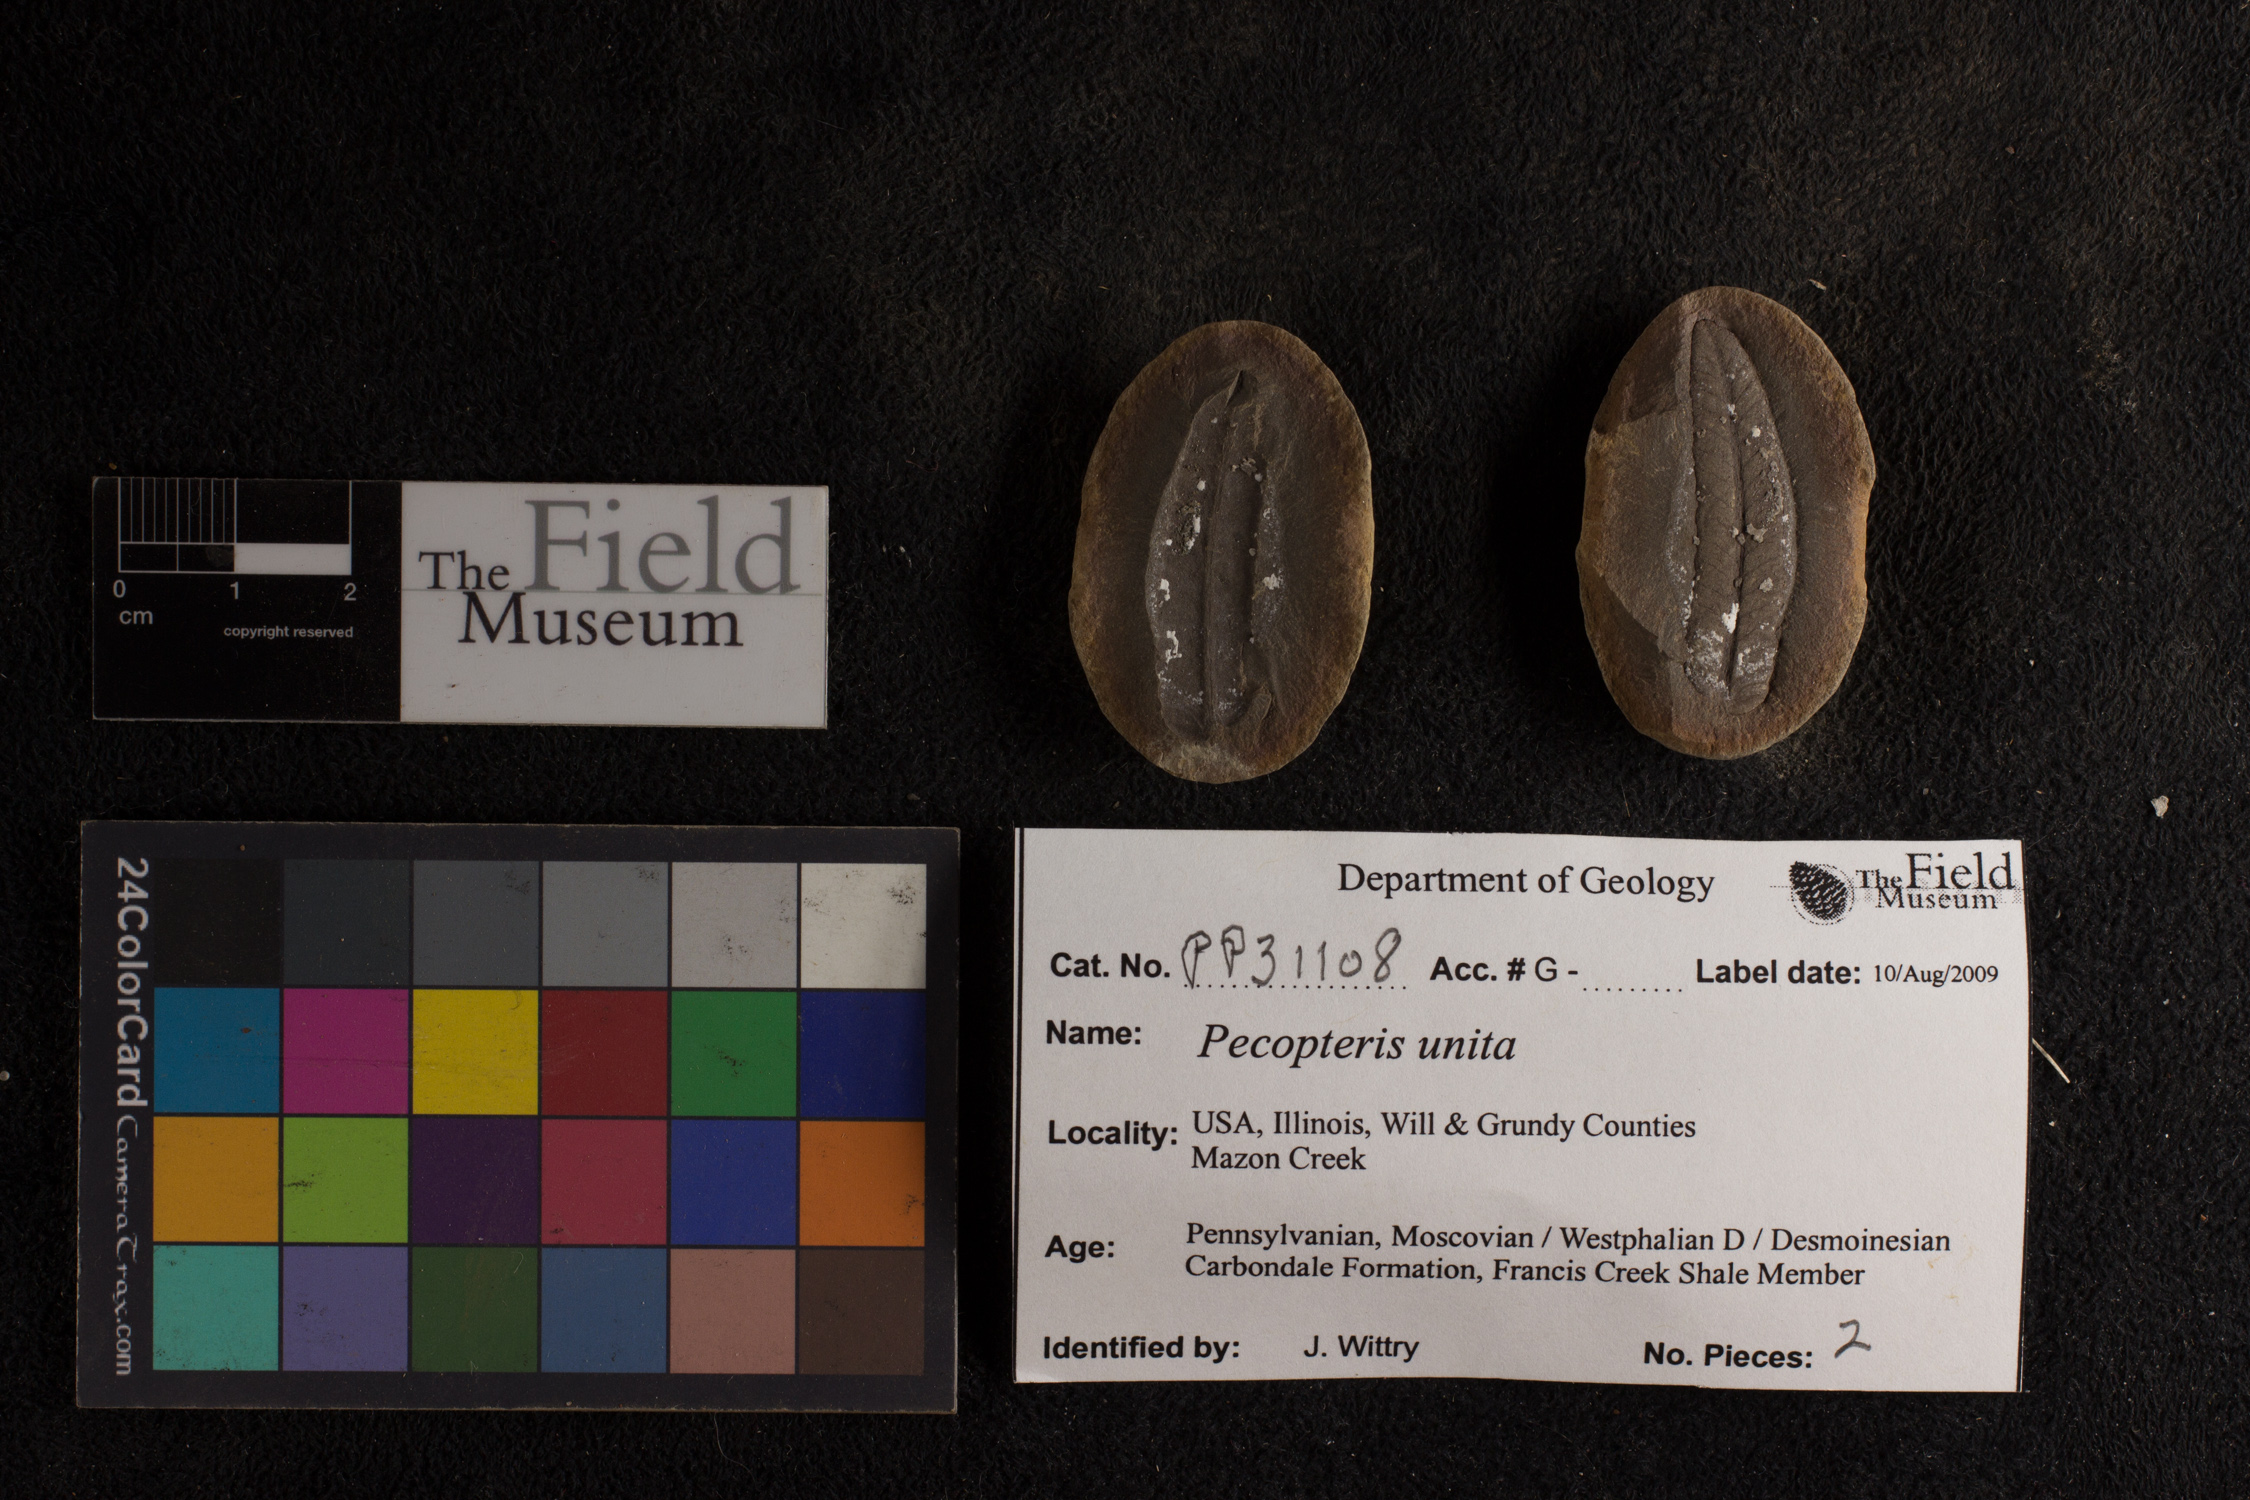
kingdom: Plantae
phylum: Tracheophyta
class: Polypodiopsida
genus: Diplazites
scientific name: Diplazites
